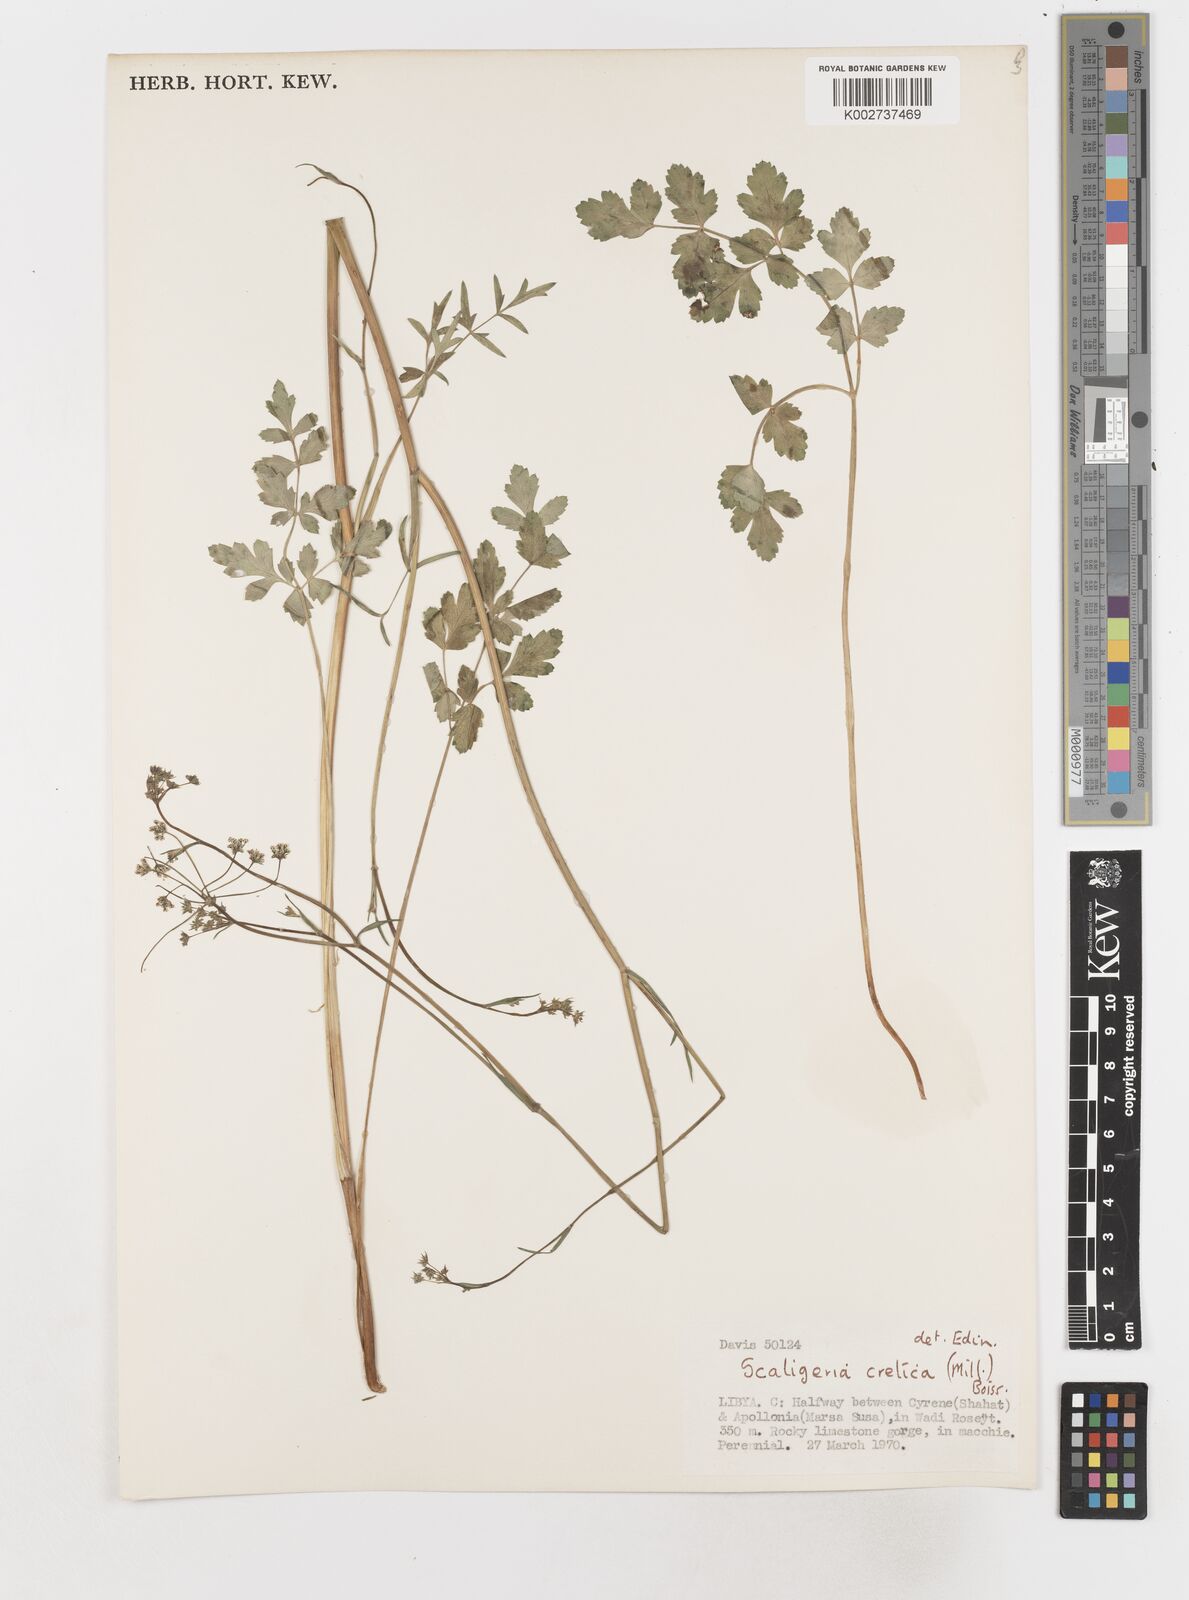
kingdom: Plantae
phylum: Tracheophyta
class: Magnoliopsida
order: Apiales
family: Apiaceae
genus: Scaligeria
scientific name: Scaligeria napiformis
